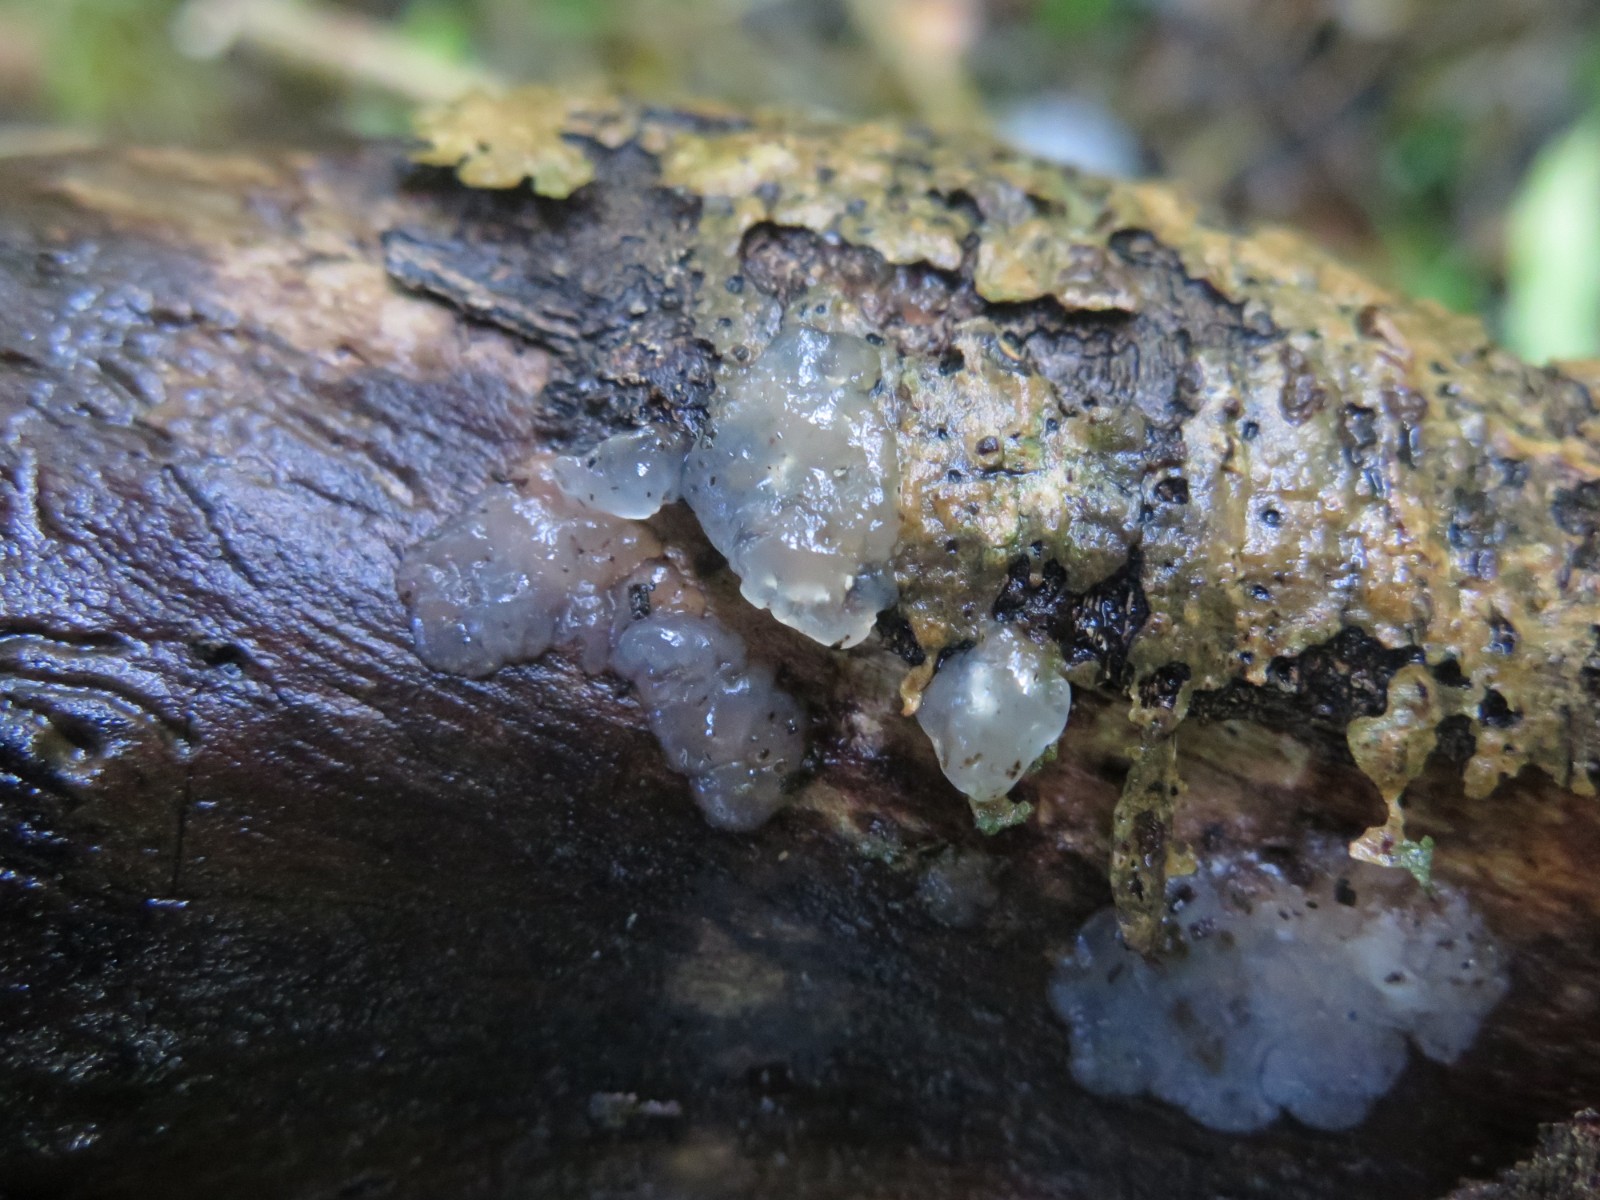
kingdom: Fungi
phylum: Basidiomycota
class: Agaricomycetes
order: Auriculariales
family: Hyaloriaceae
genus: Myxarium
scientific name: Myxarium nucleatum
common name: klar bævretop
